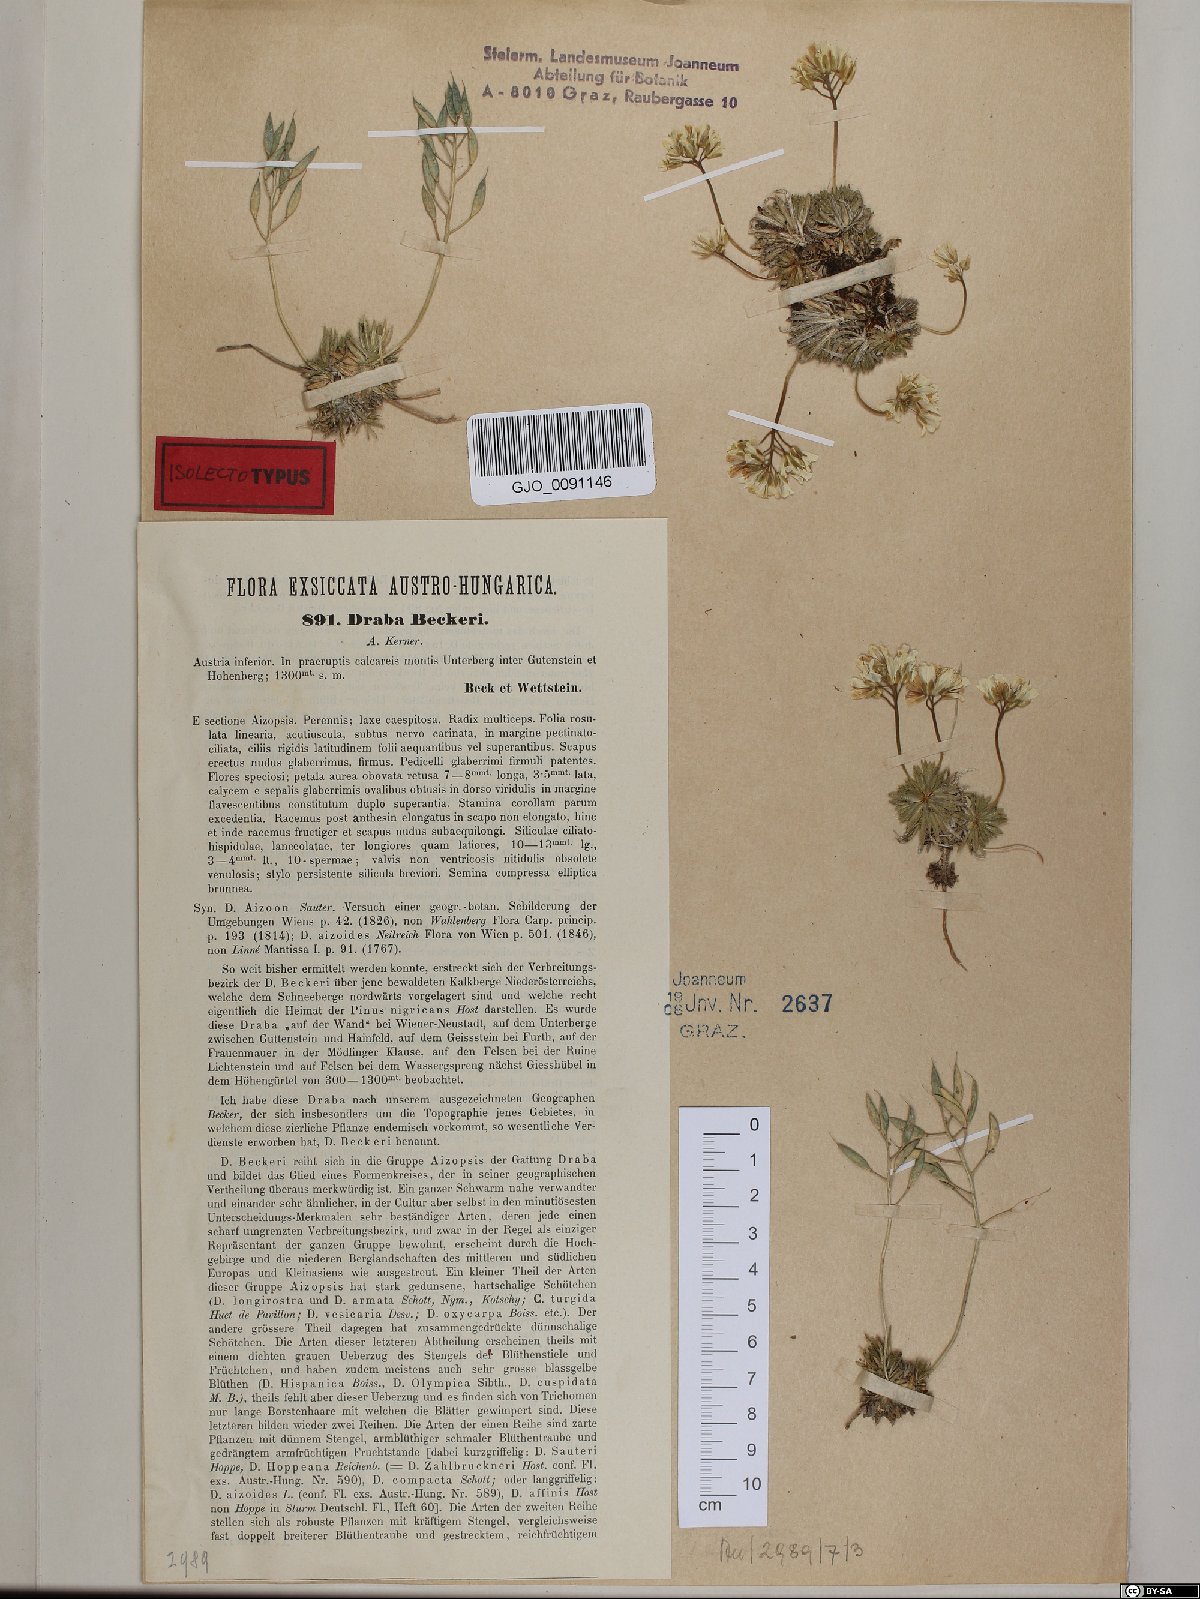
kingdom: Plantae
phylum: Tracheophyta
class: Magnoliopsida
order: Brassicales
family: Brassicaceae
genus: Draba
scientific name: Draba aizoides
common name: Yellow whitlowgrass
